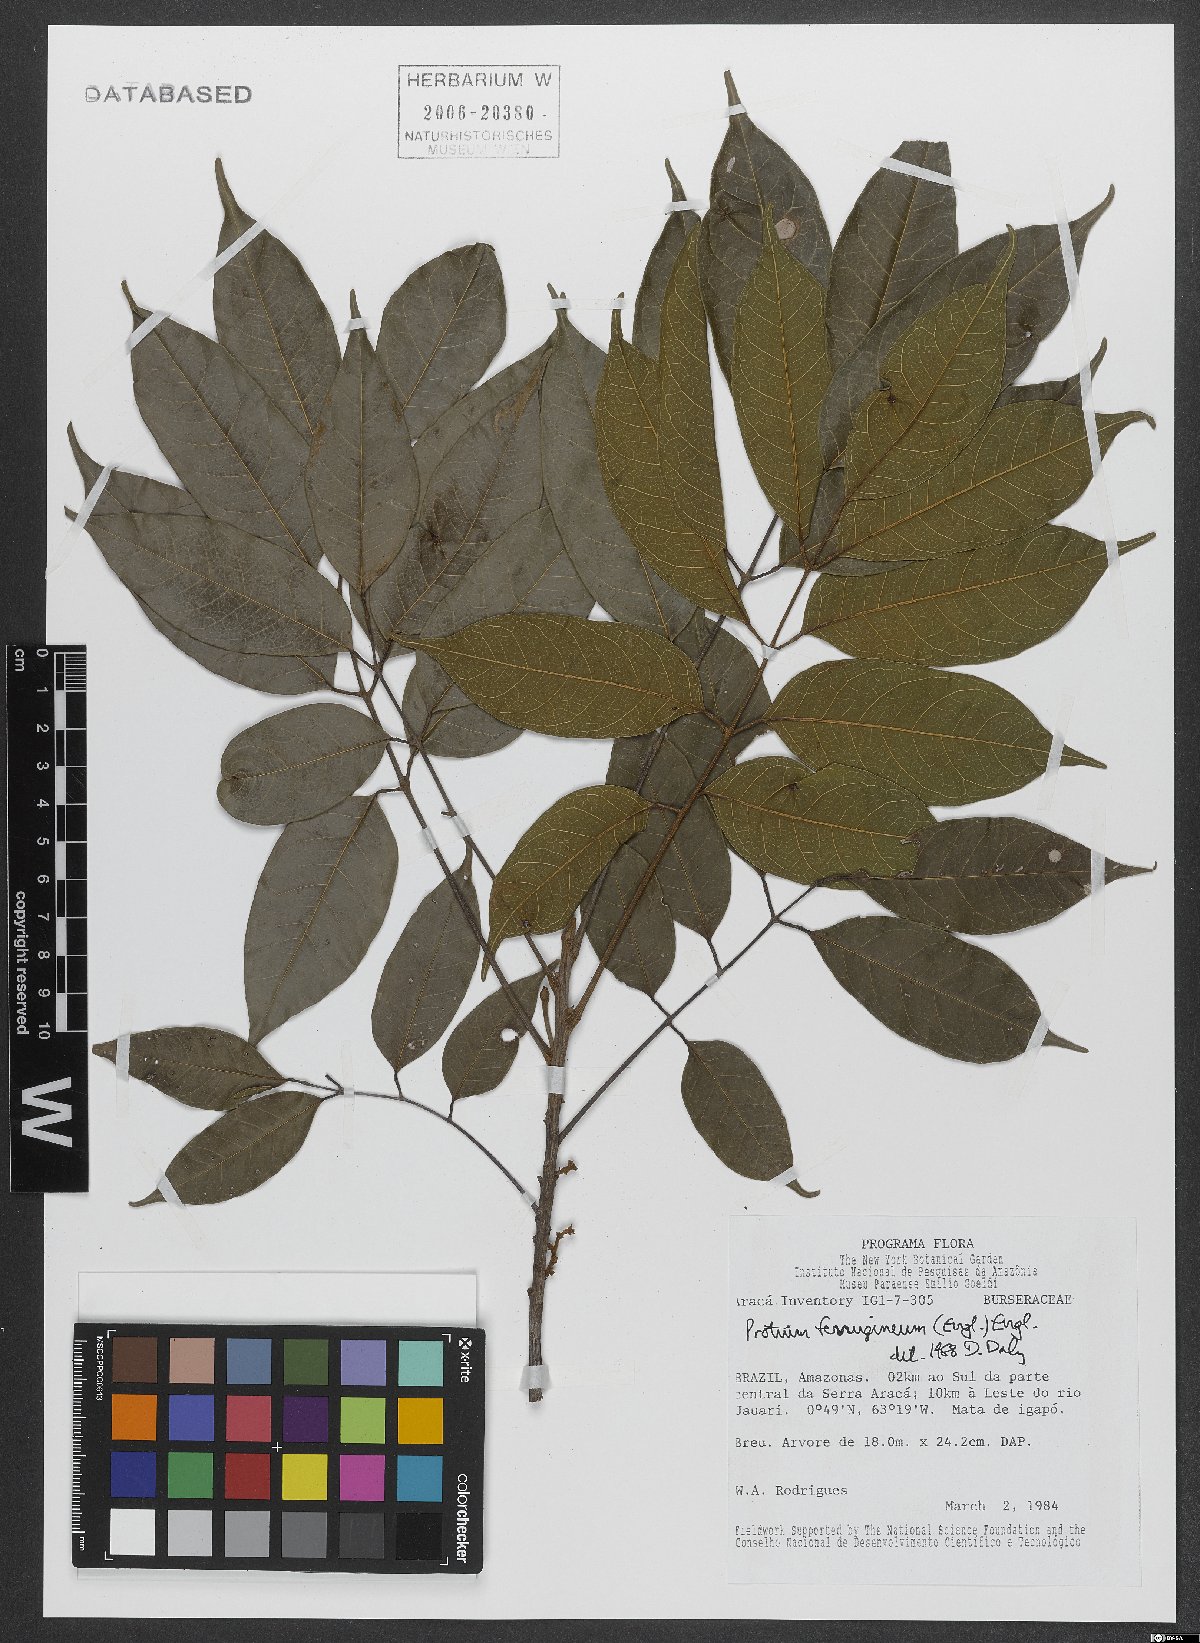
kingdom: Plantae
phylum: Tracheophyta
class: Magnoliopsida
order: Sapindales
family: Burseraceae
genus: Protium
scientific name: Protium ferrugineum
